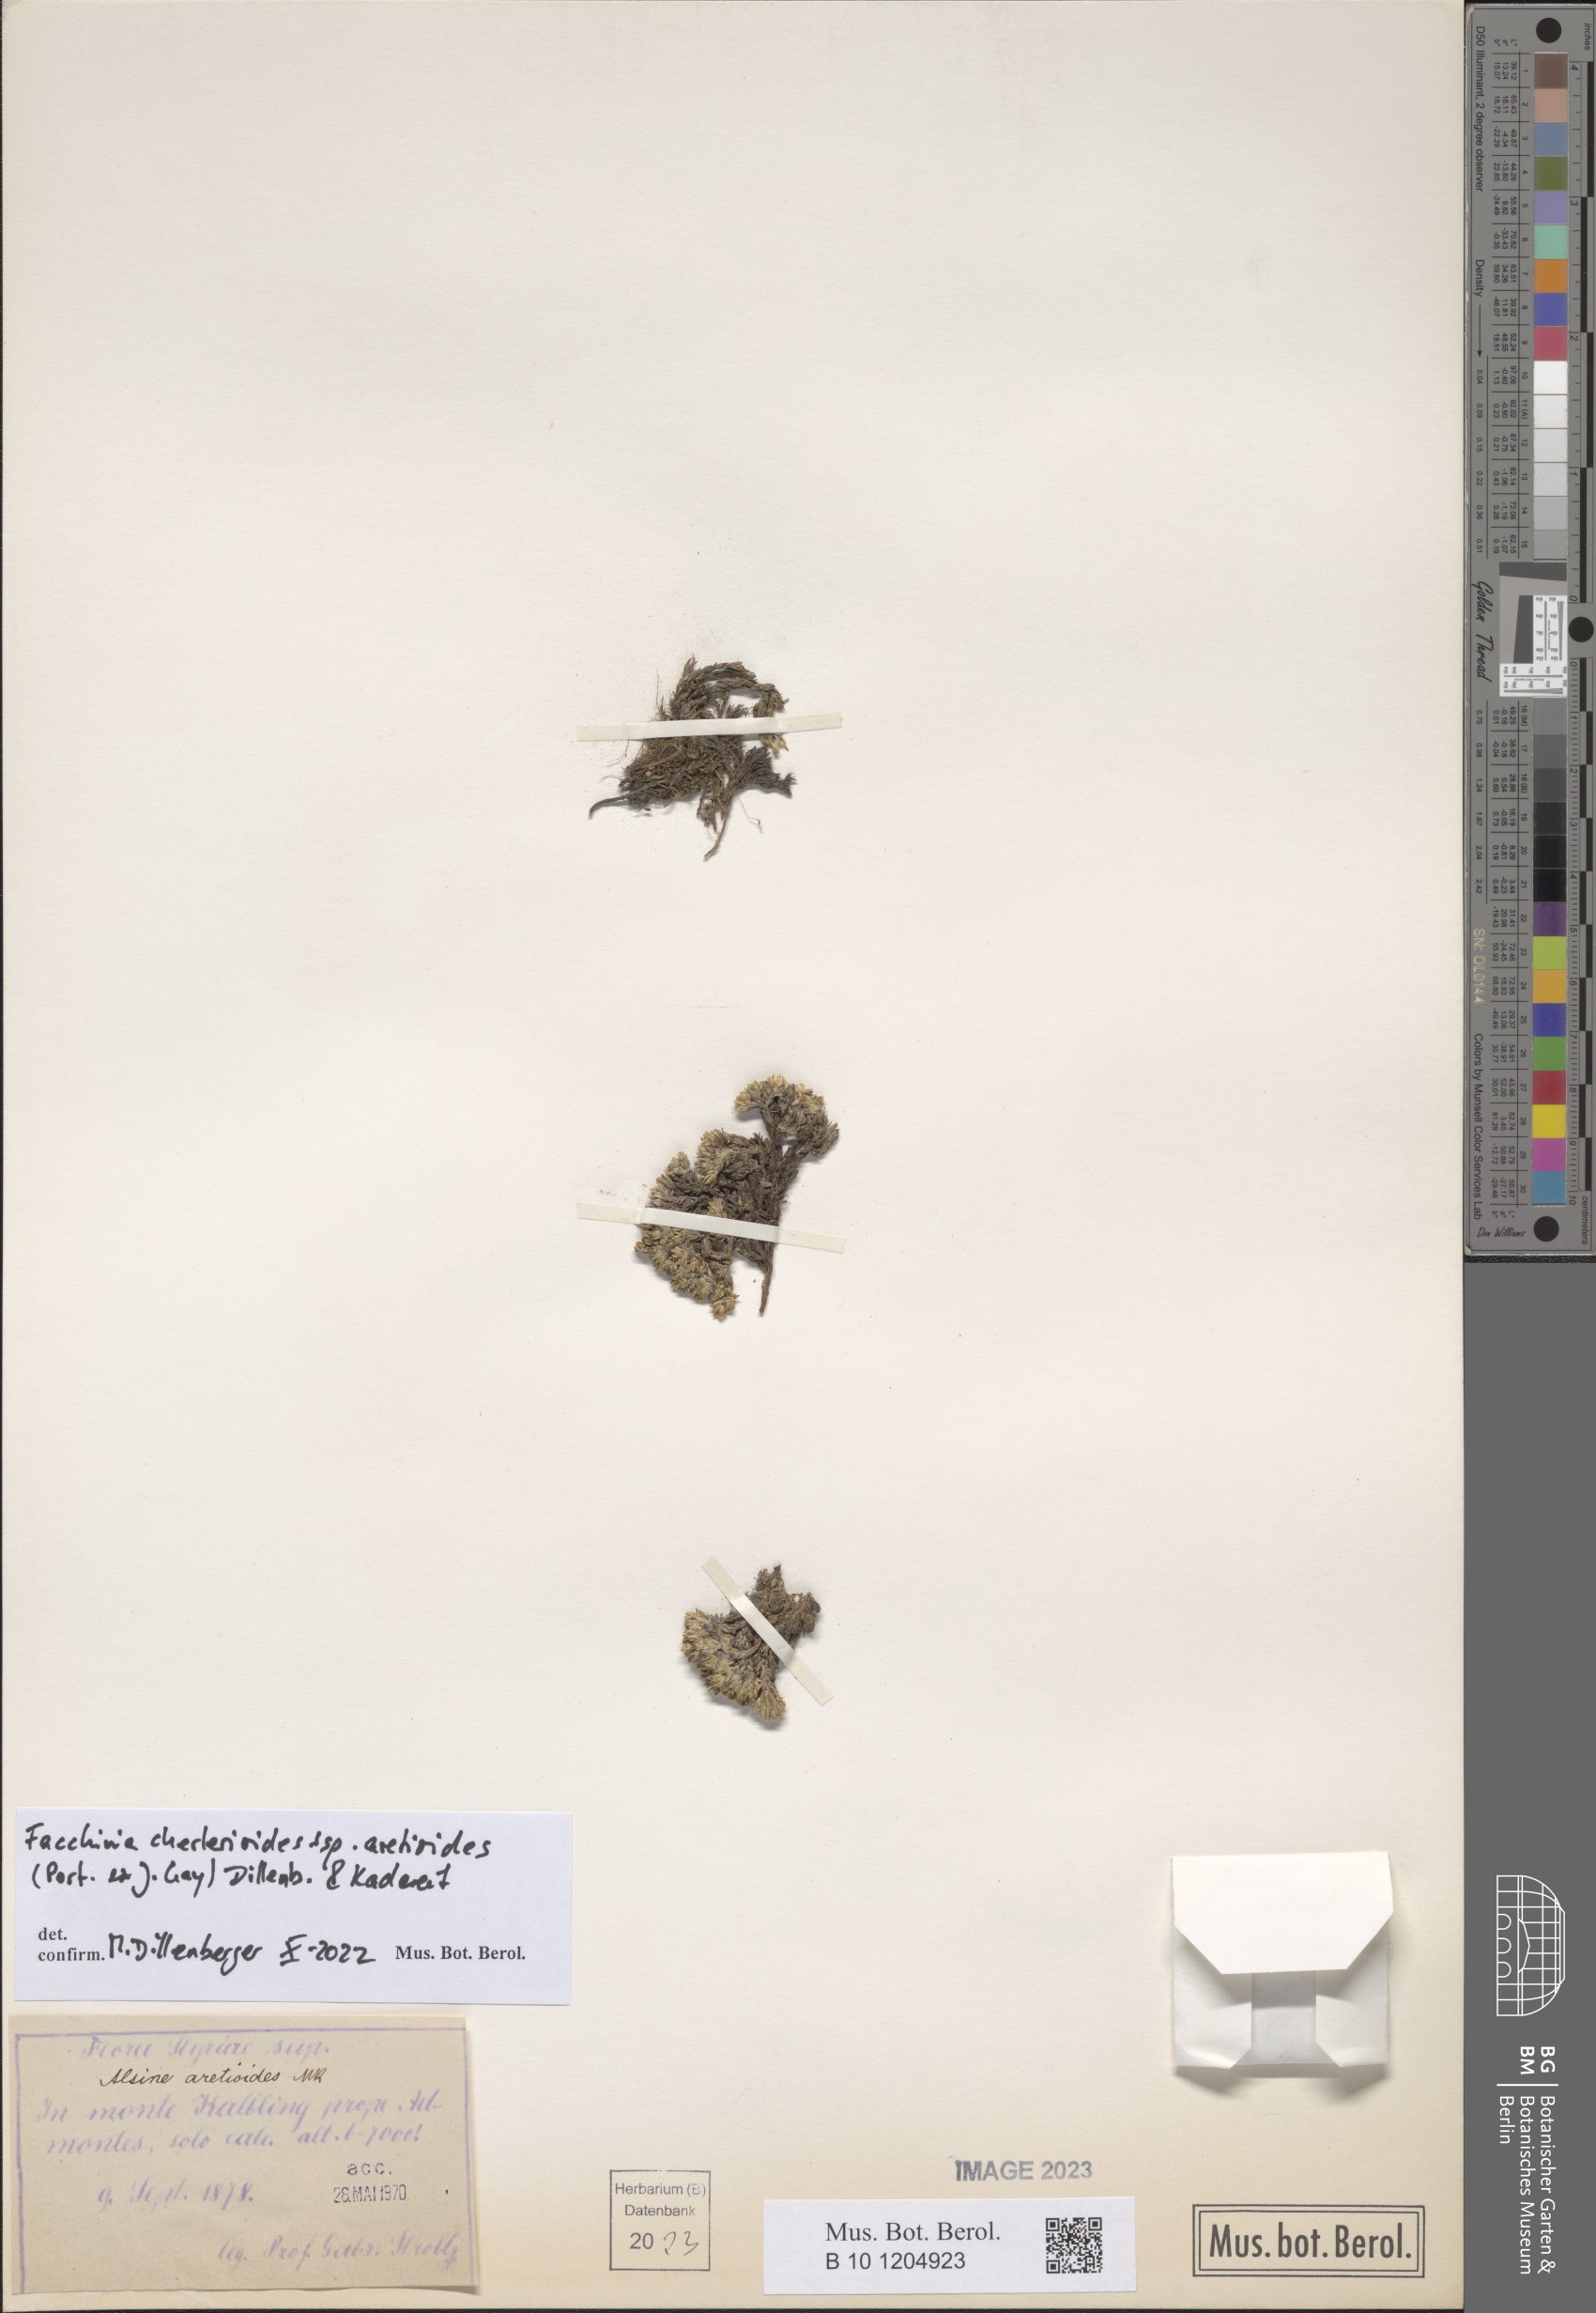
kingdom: Plantae
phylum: Tracheophyta
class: Magnoliopsida
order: Caryophyllales
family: Caryophyllaceae
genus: Facchinia
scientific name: Facchinia cherlerioides
